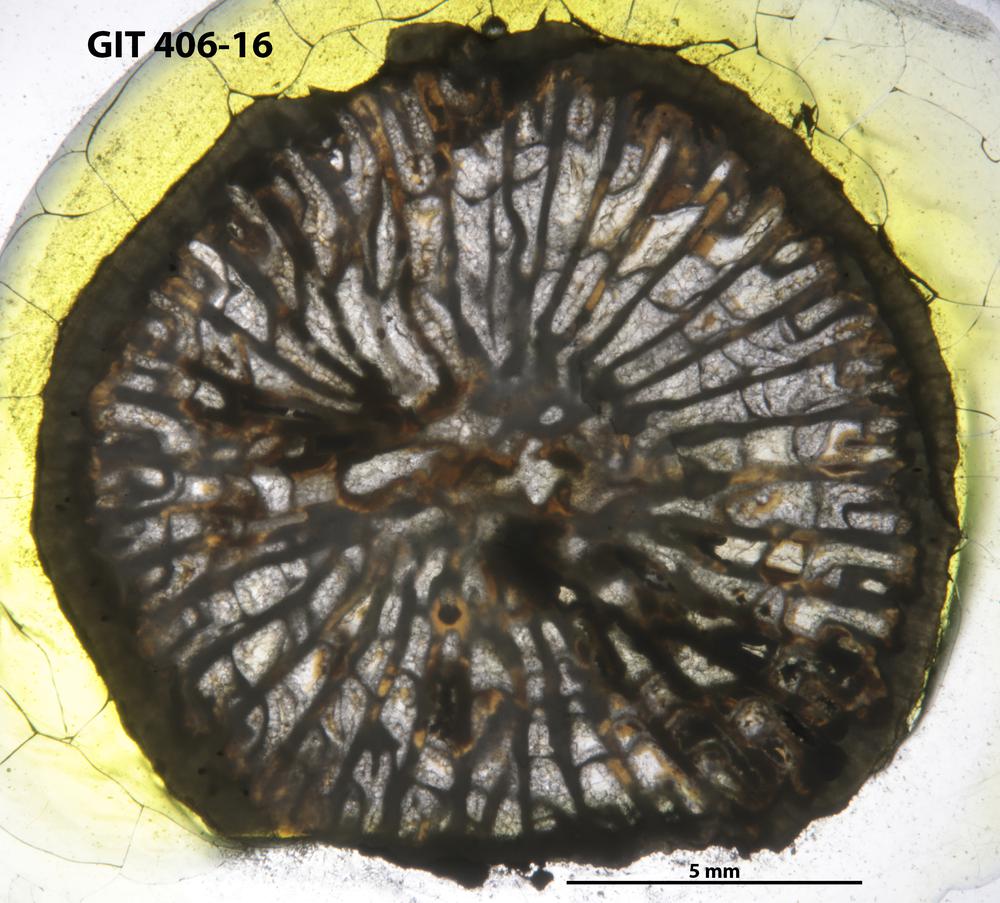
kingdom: Animalia
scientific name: Animalia
